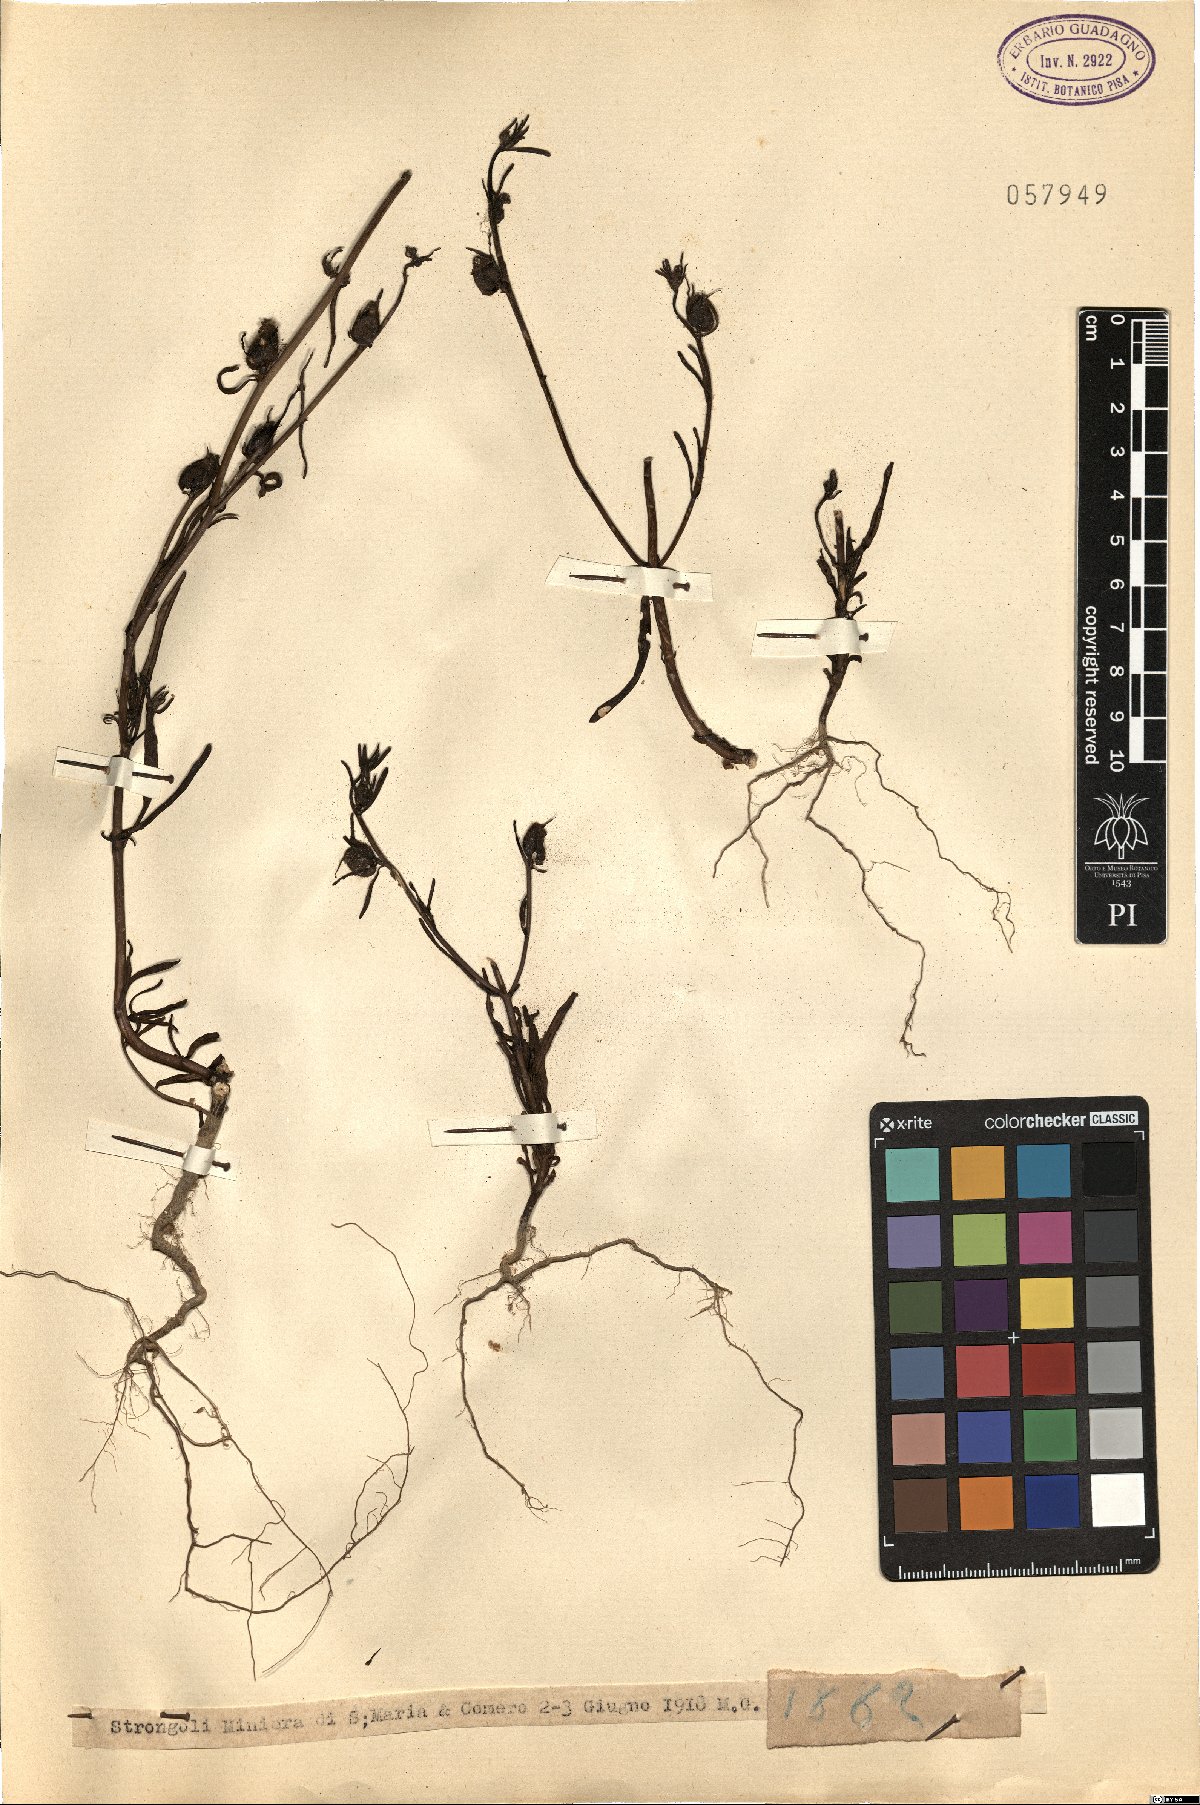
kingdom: Plantae
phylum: Tracheophyta
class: Magnoliopsida
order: Lamiales
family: Plantaginaceae
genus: Antirrhinum
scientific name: Antirrhinum
